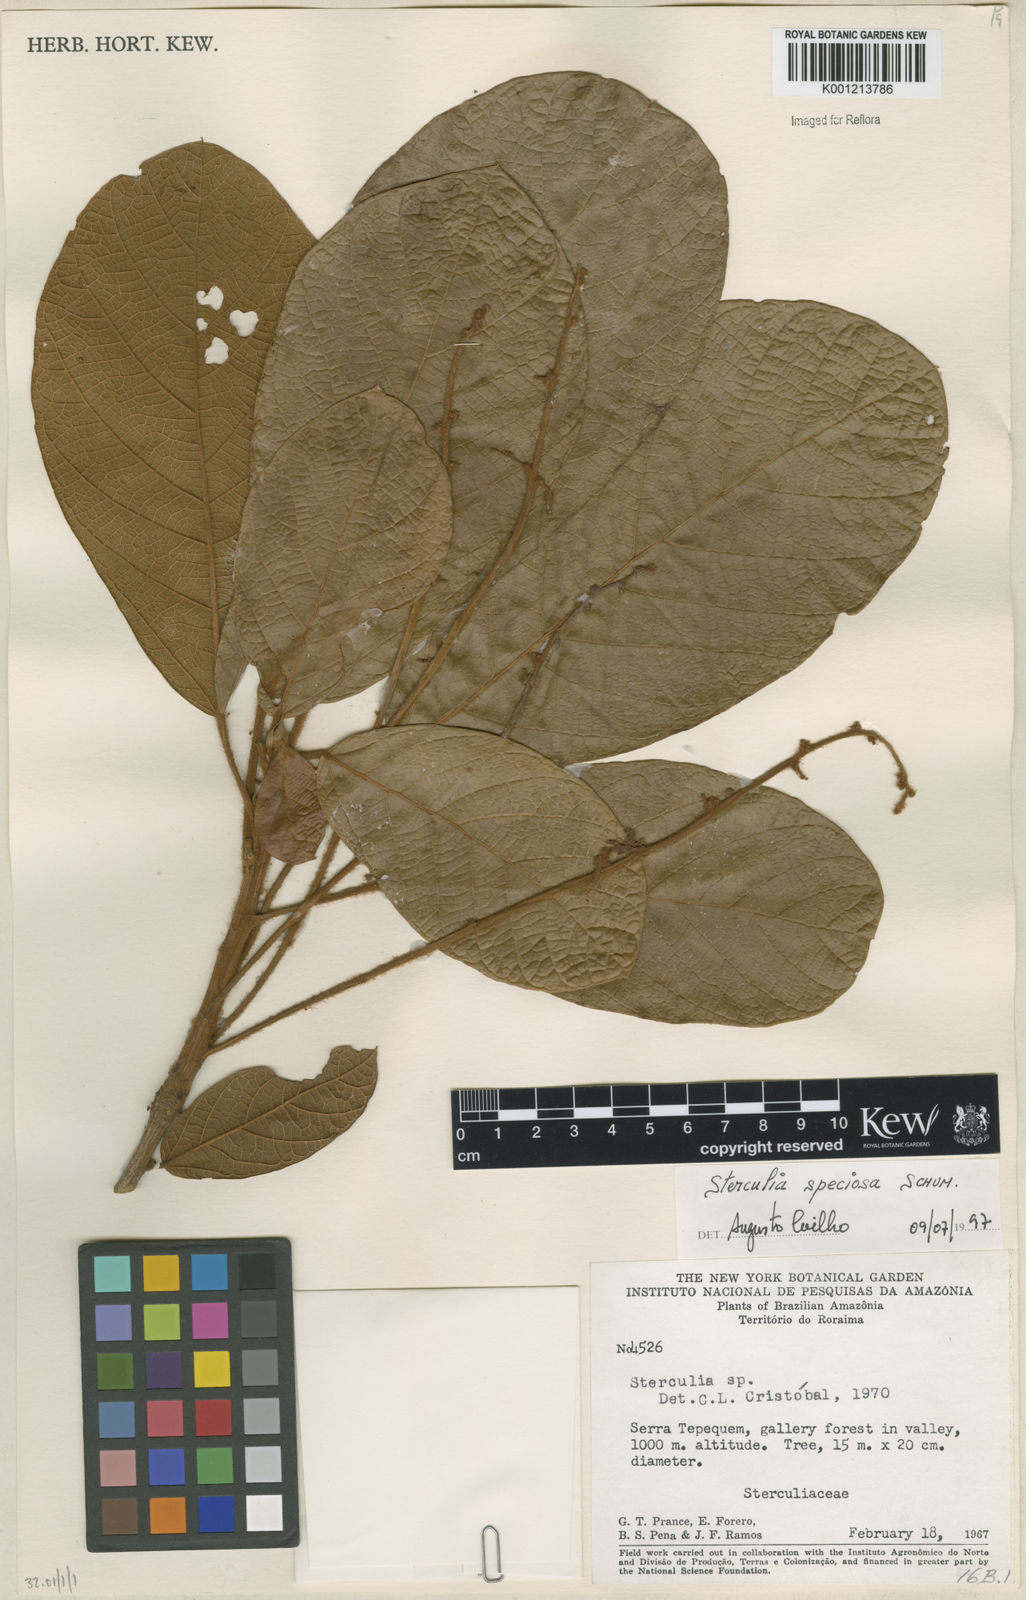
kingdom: Plantae
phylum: Tracheophyta
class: Magnoliopsida
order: Malvales
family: Malvaceae
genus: Sterculia
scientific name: Sterculia speciosa
